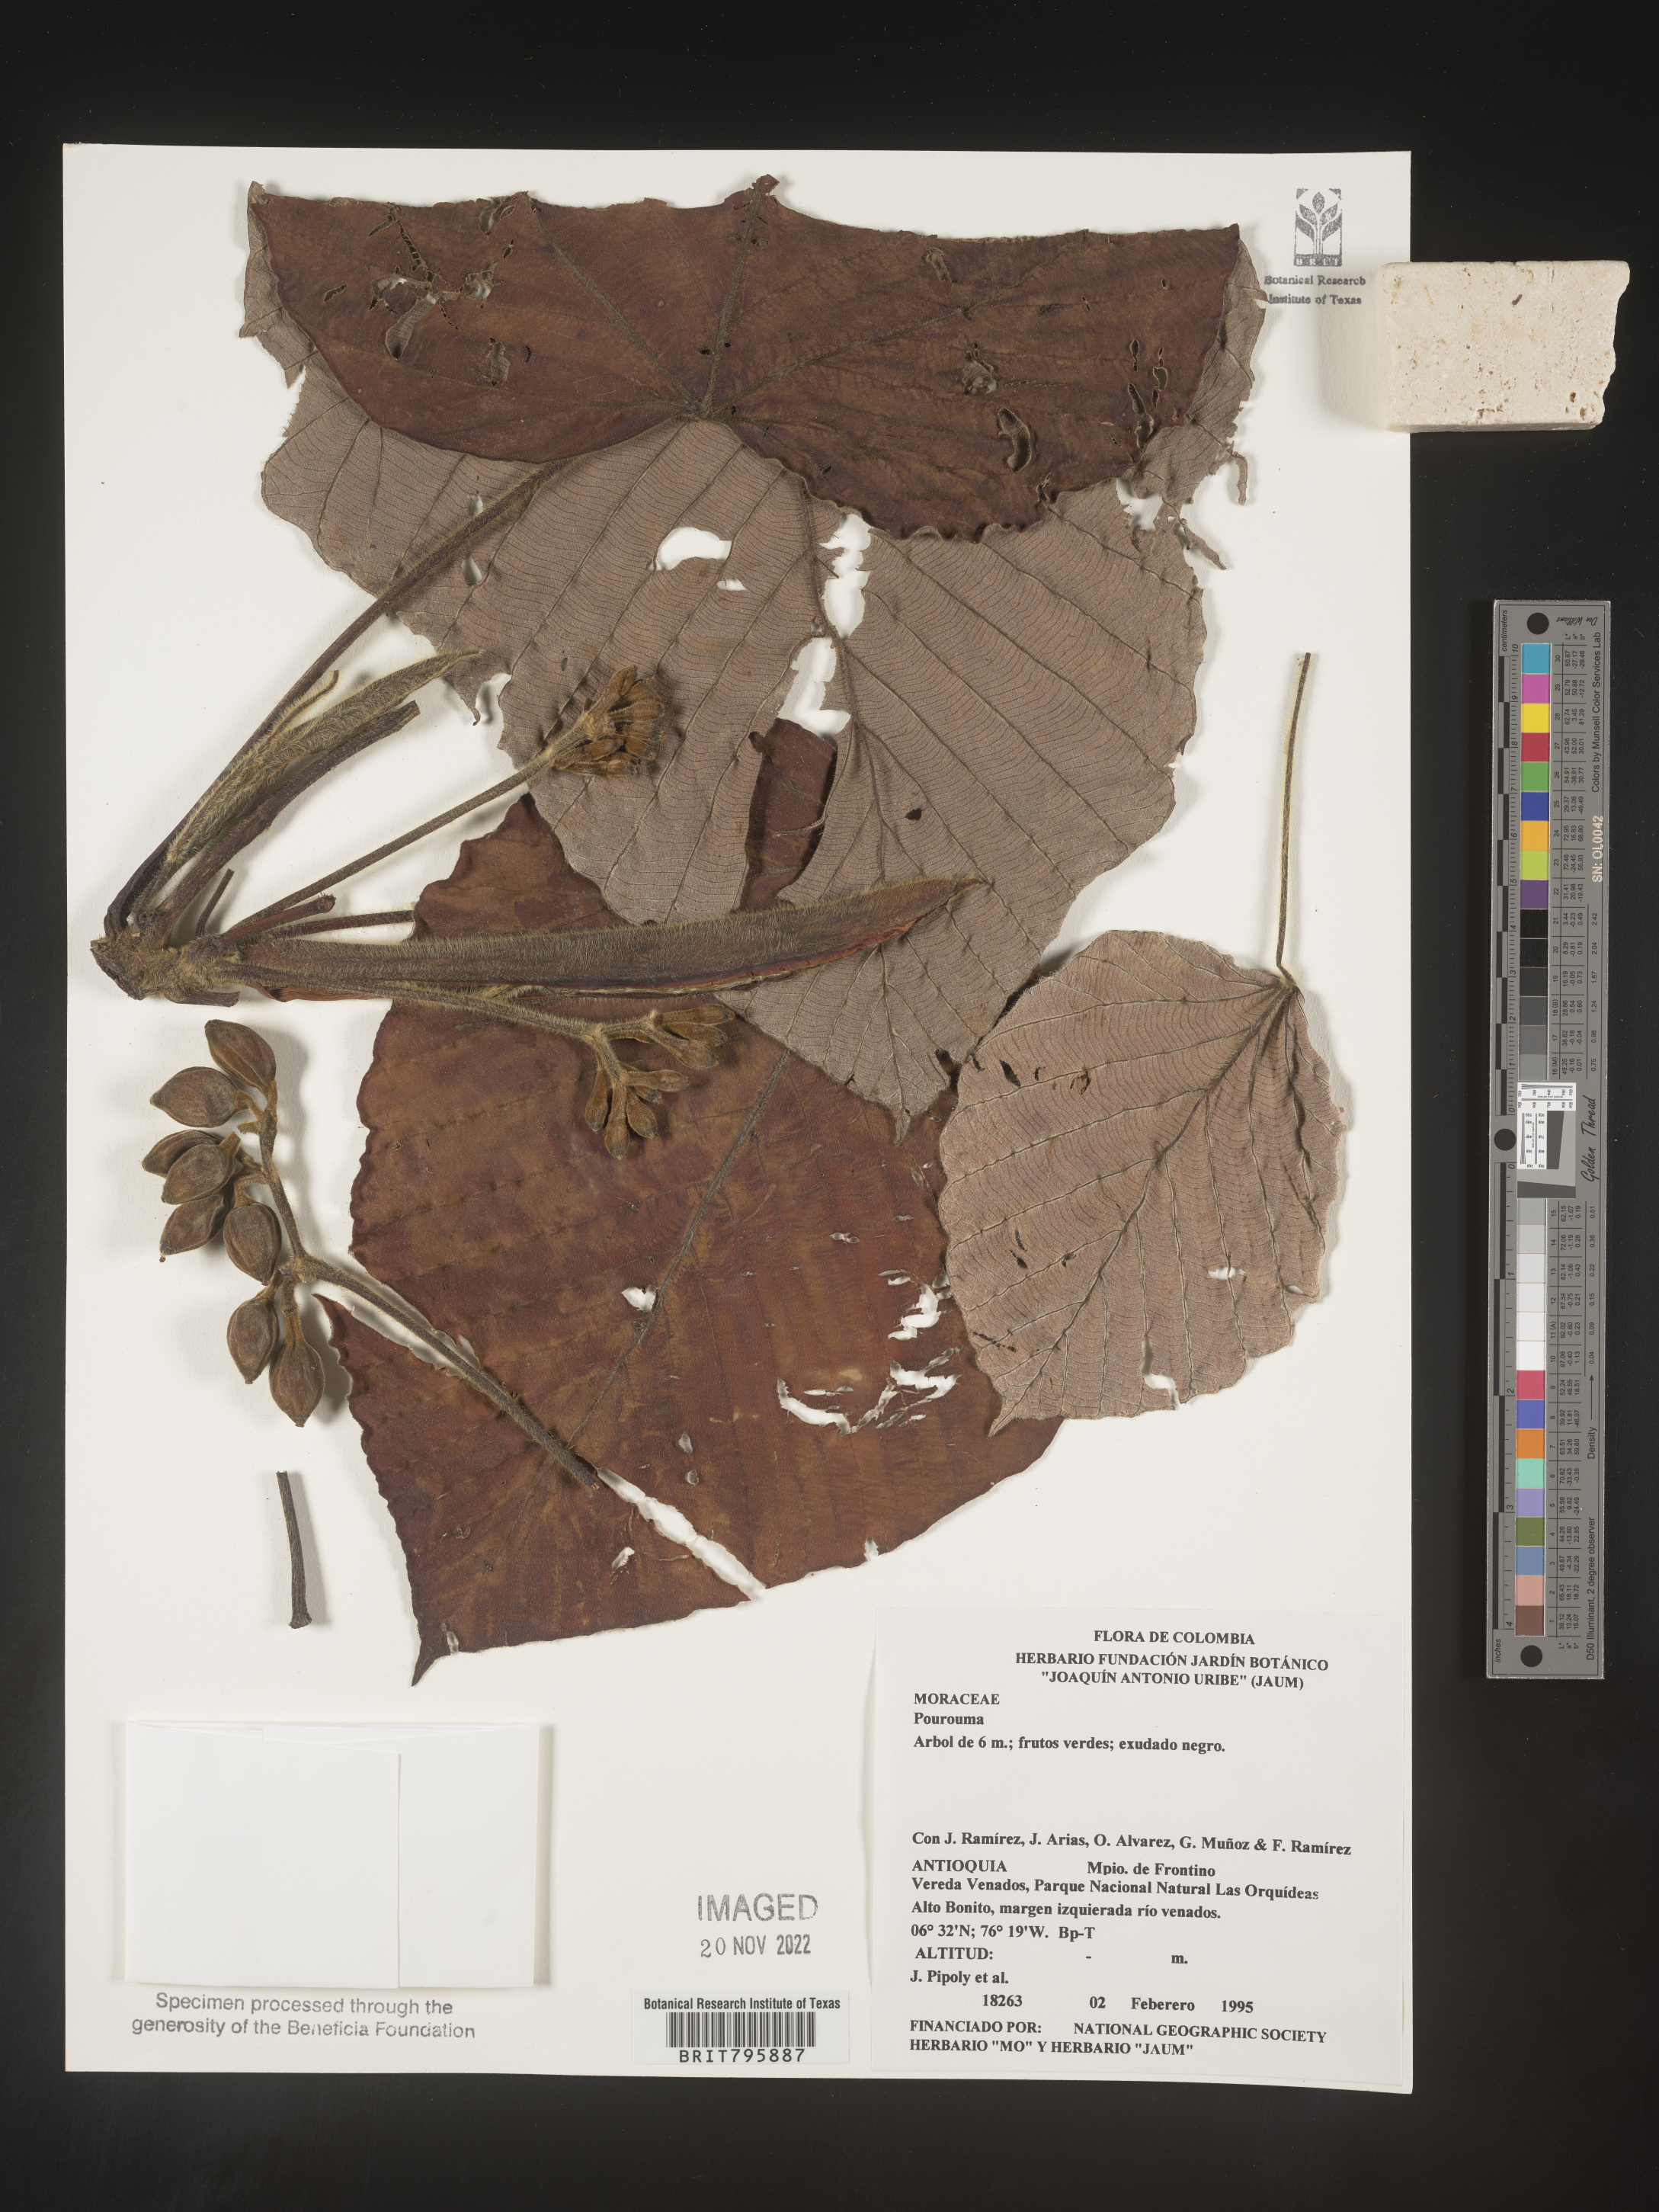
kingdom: Plantae
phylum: Tracheophyta
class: Magnoliopsida
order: Rosales
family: Urticaceae
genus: Pourouma
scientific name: Pourouma
